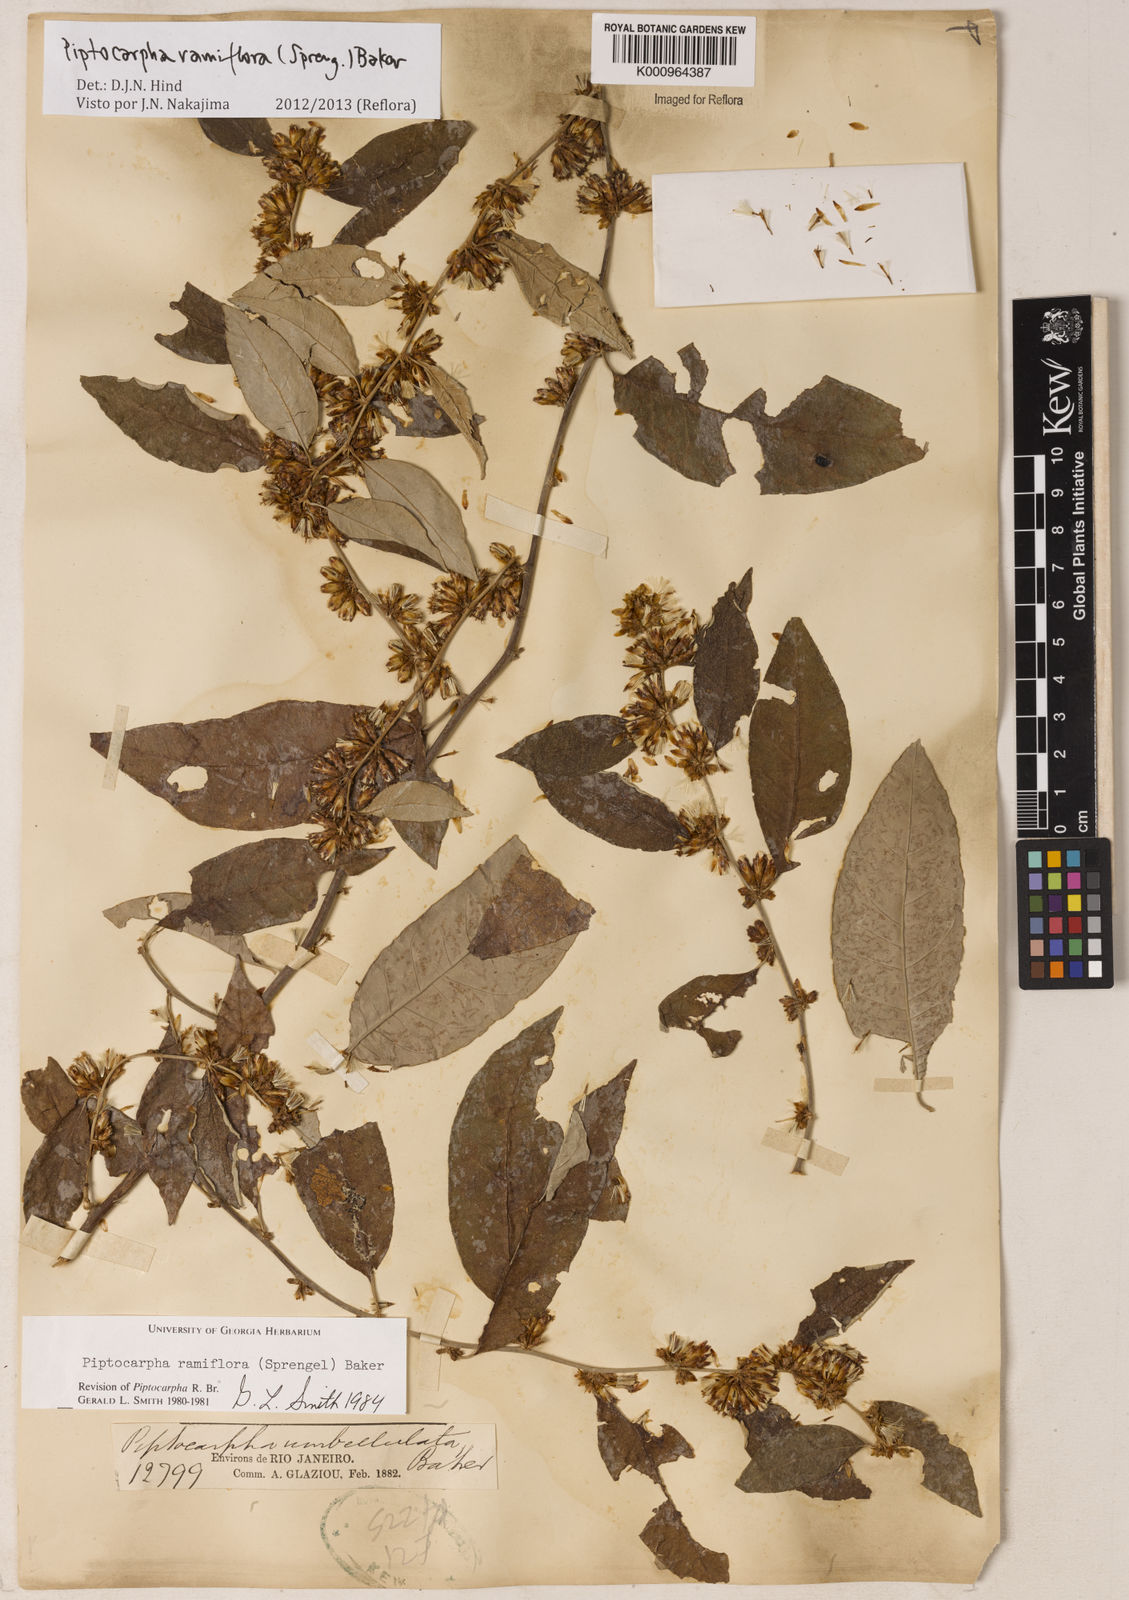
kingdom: Plantae
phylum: Tracheophyta
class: Magnoliopsida
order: Asterales
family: Asteraceae
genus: Piptocarpha
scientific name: Piptocarpha ramiflora
